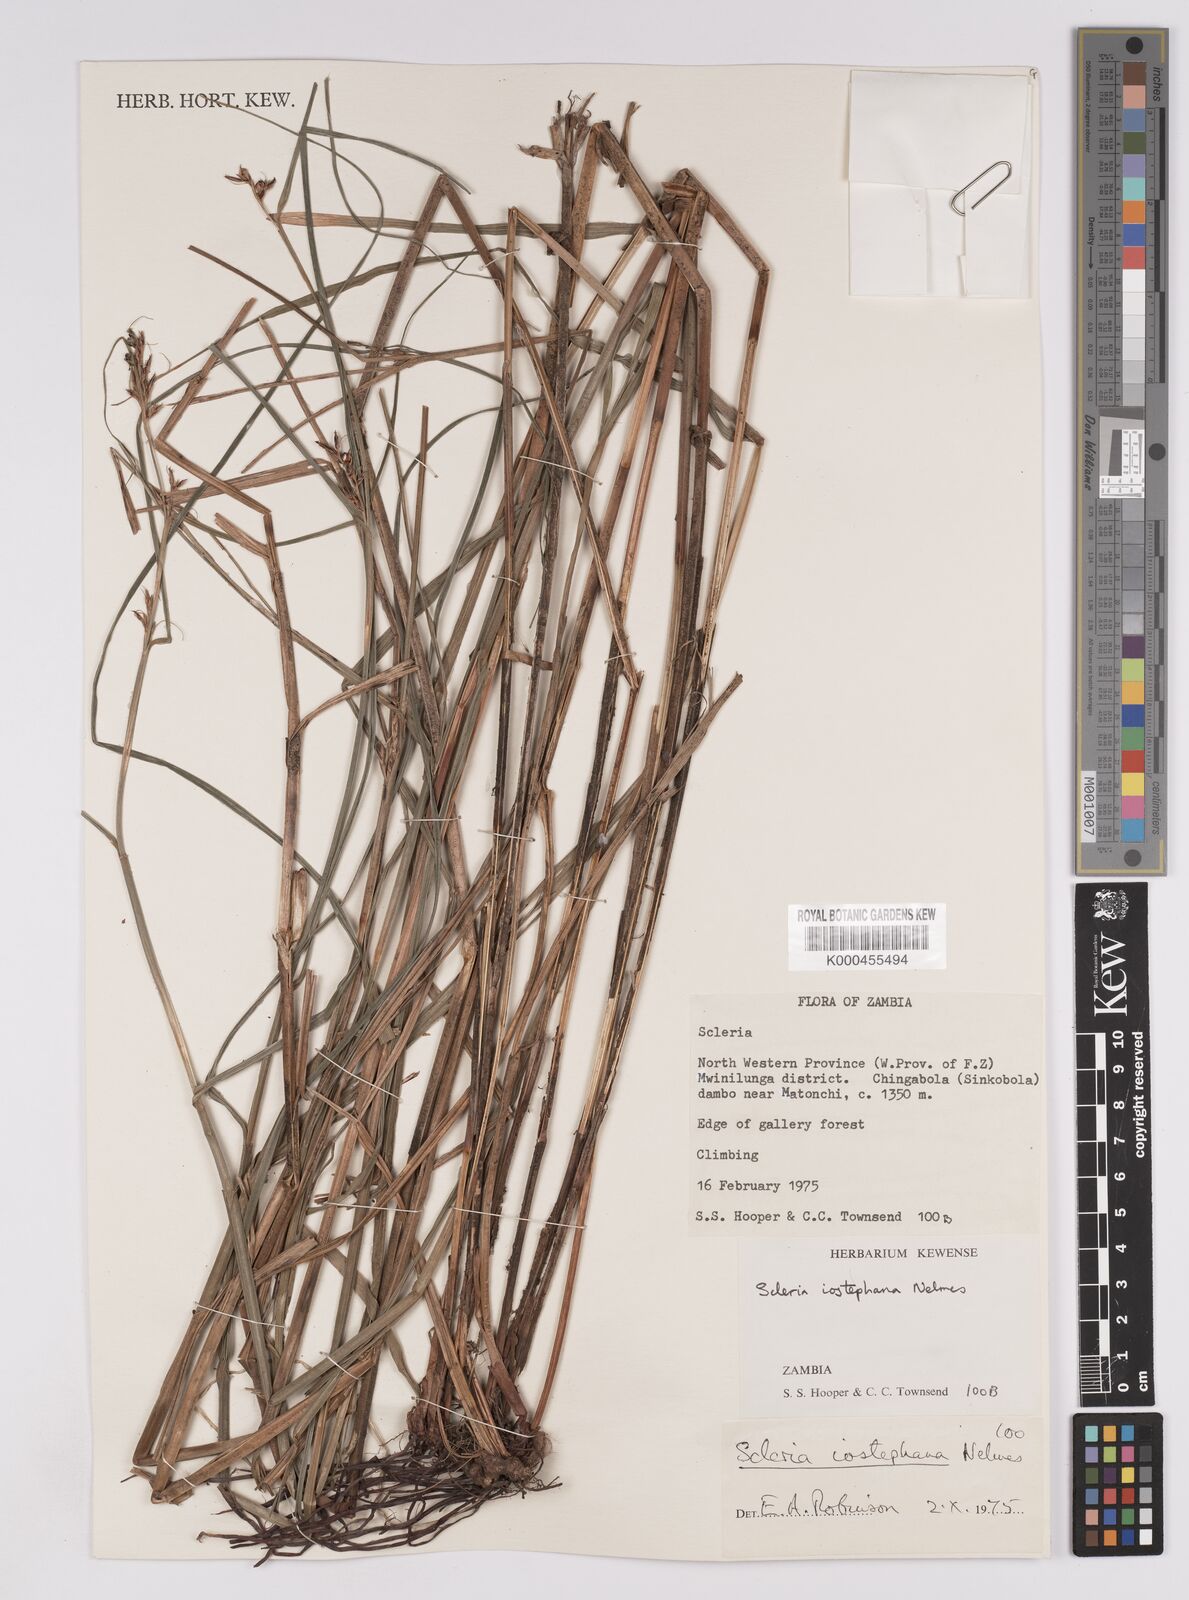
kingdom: Plantae
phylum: Tracheophyta
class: Liliopsida
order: Poales
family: Cyperaceae
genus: Scleria
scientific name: Scleria iostephana
